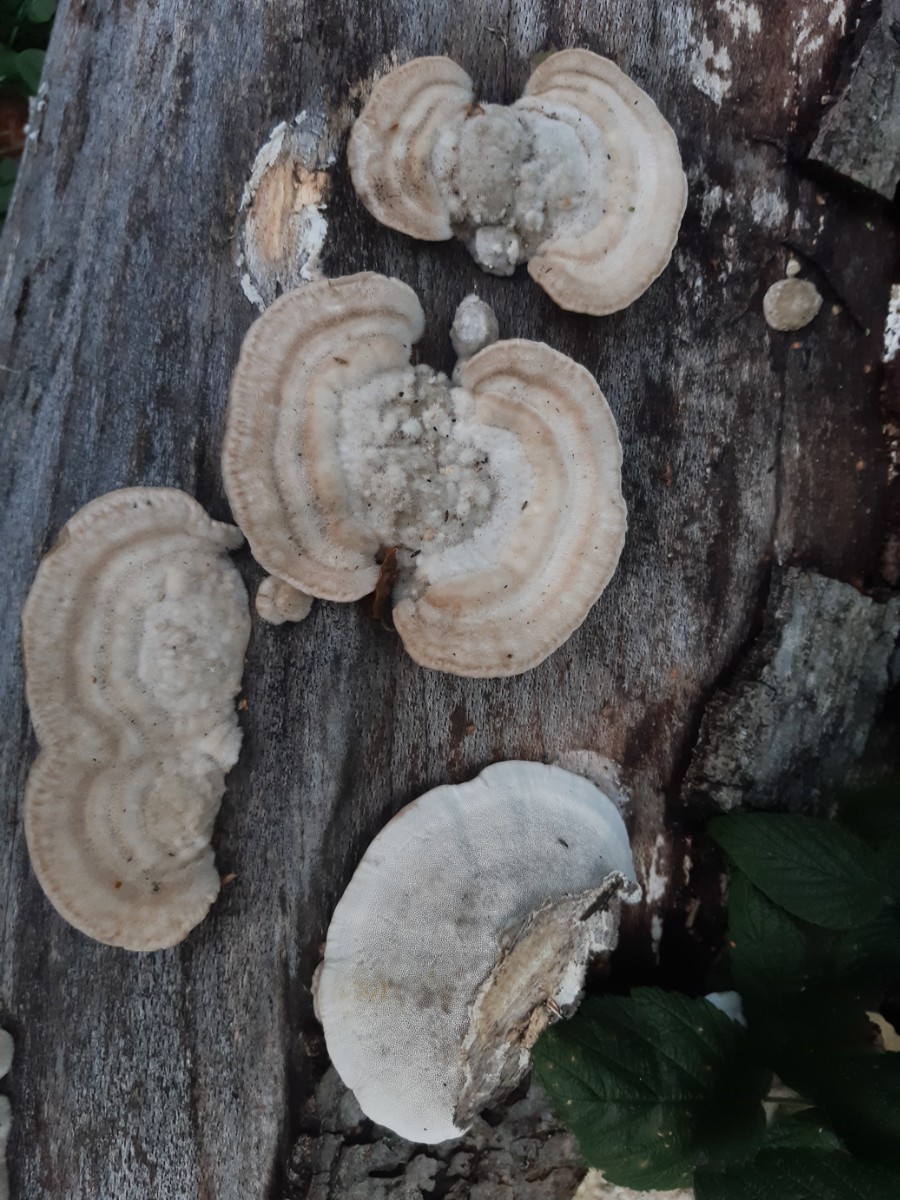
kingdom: Fungi
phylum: Basidiomycota
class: Agaricomycetes
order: Polyporales
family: Polyporaceae
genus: Trametes
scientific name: Trametes hirsuta
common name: håret læderporesvamp
